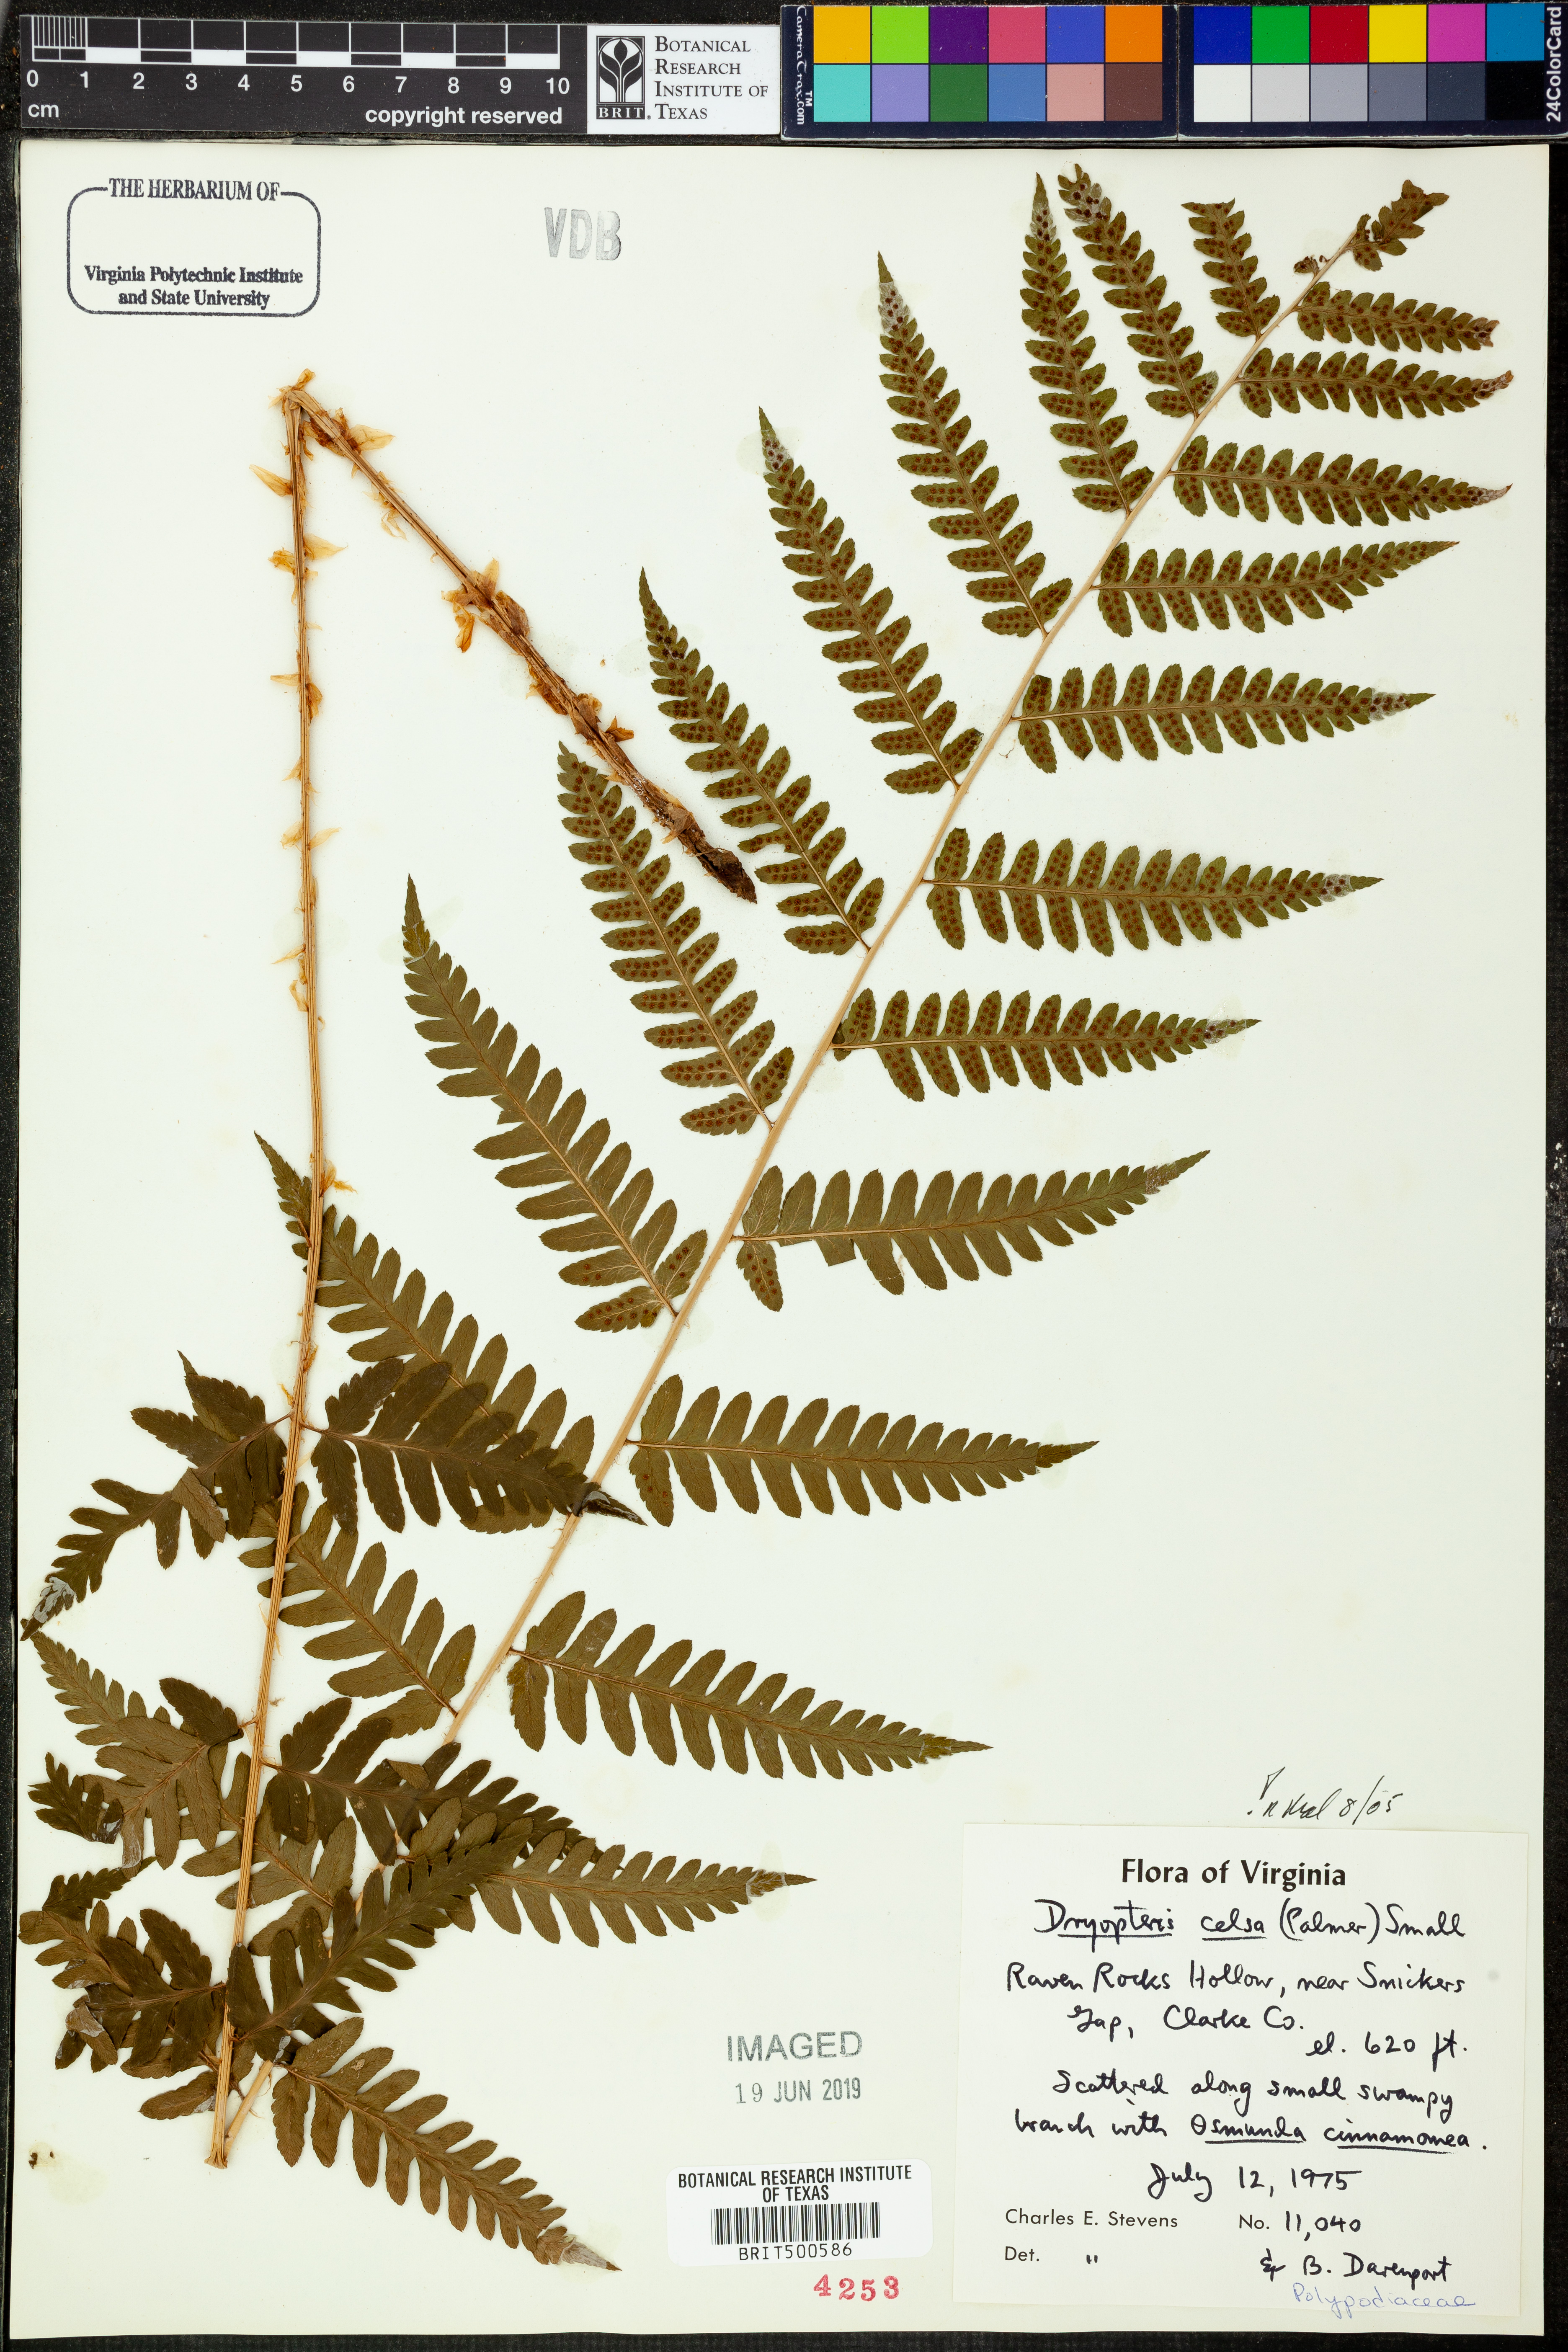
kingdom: Plantae
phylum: Tracheophyta
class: Polypodiopsida
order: Polypodiales
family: Dryopteridaceae
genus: Dryopteris
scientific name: Dryopteris celsa
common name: Log fern
